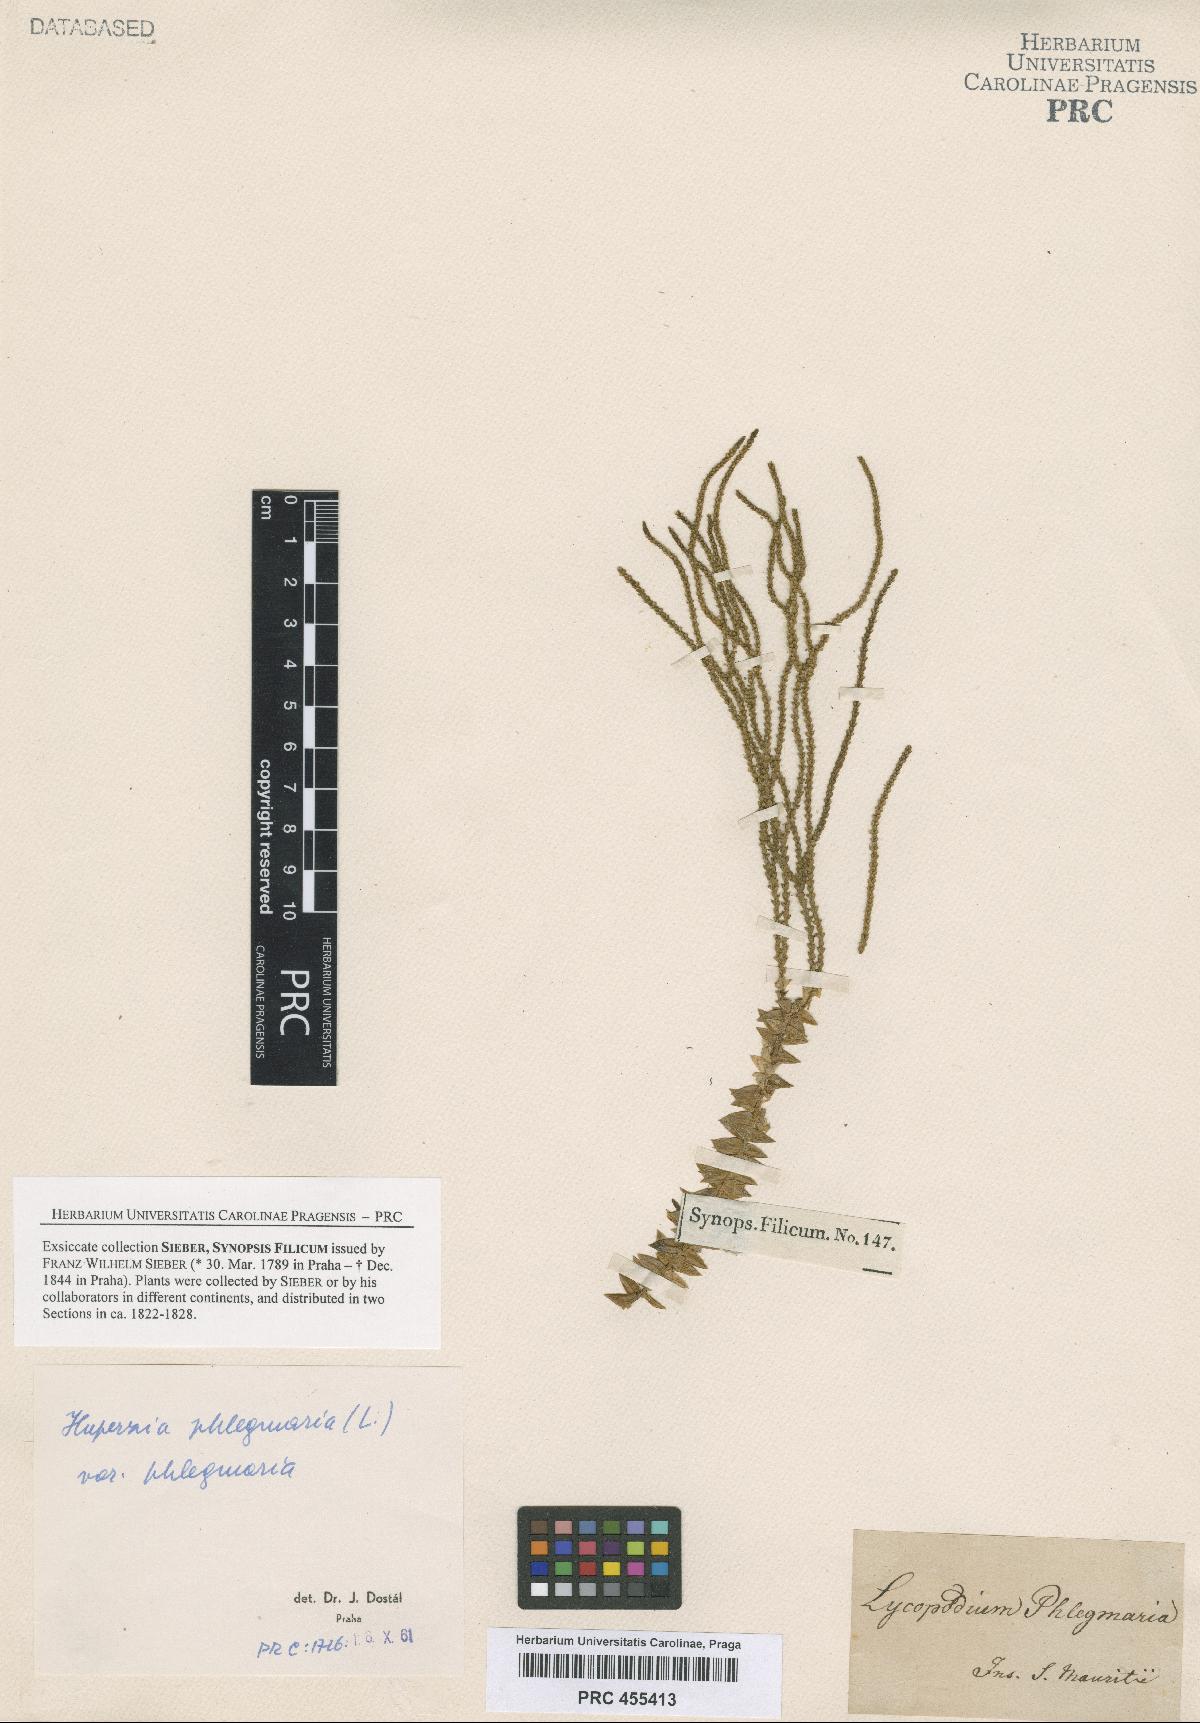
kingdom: Plantae
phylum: Tracheophyta
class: Lycopodiopsida
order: Lycopodiales
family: Lycopodiaceae
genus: Phlegmariurus
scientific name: Phlegmariurus phlegmaria
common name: Coarse tassel-fern
